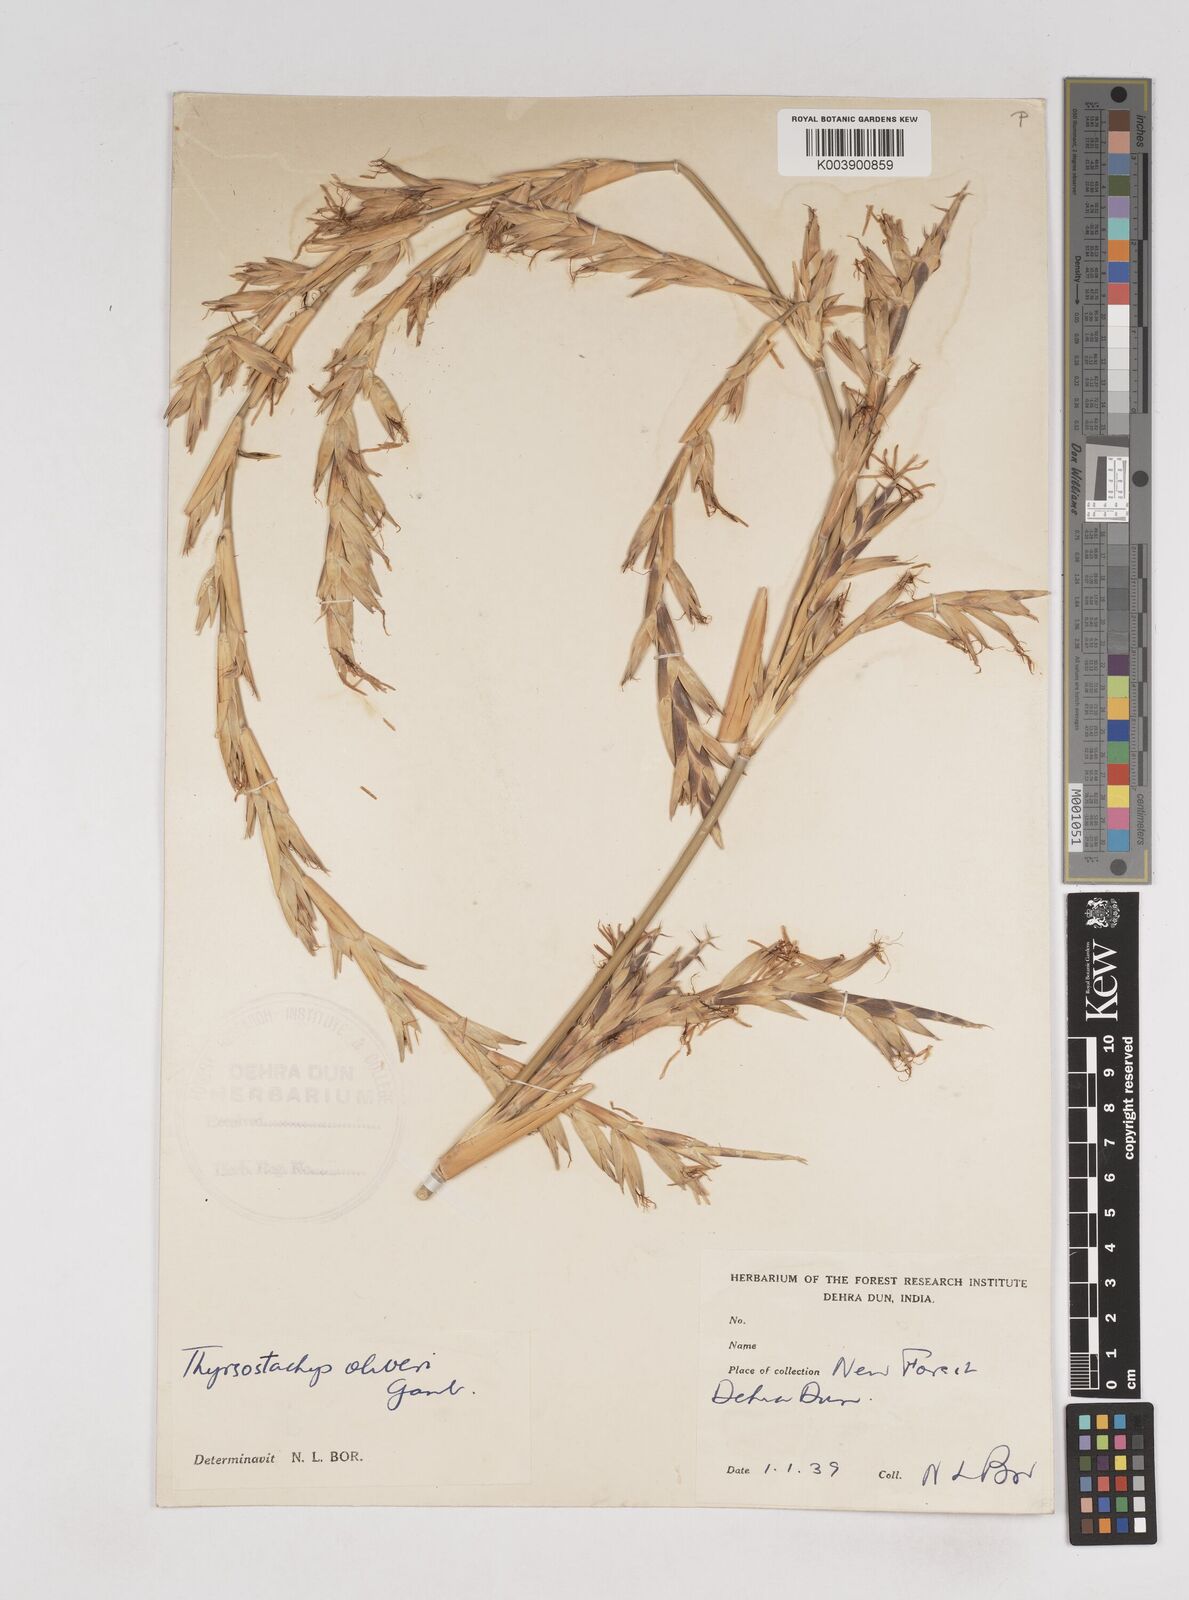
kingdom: Plantae
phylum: Tracheophyta
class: Liliopsida
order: Poales
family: Poaceae
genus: Thyrsostachys
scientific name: Thyrsostachys oliveri
